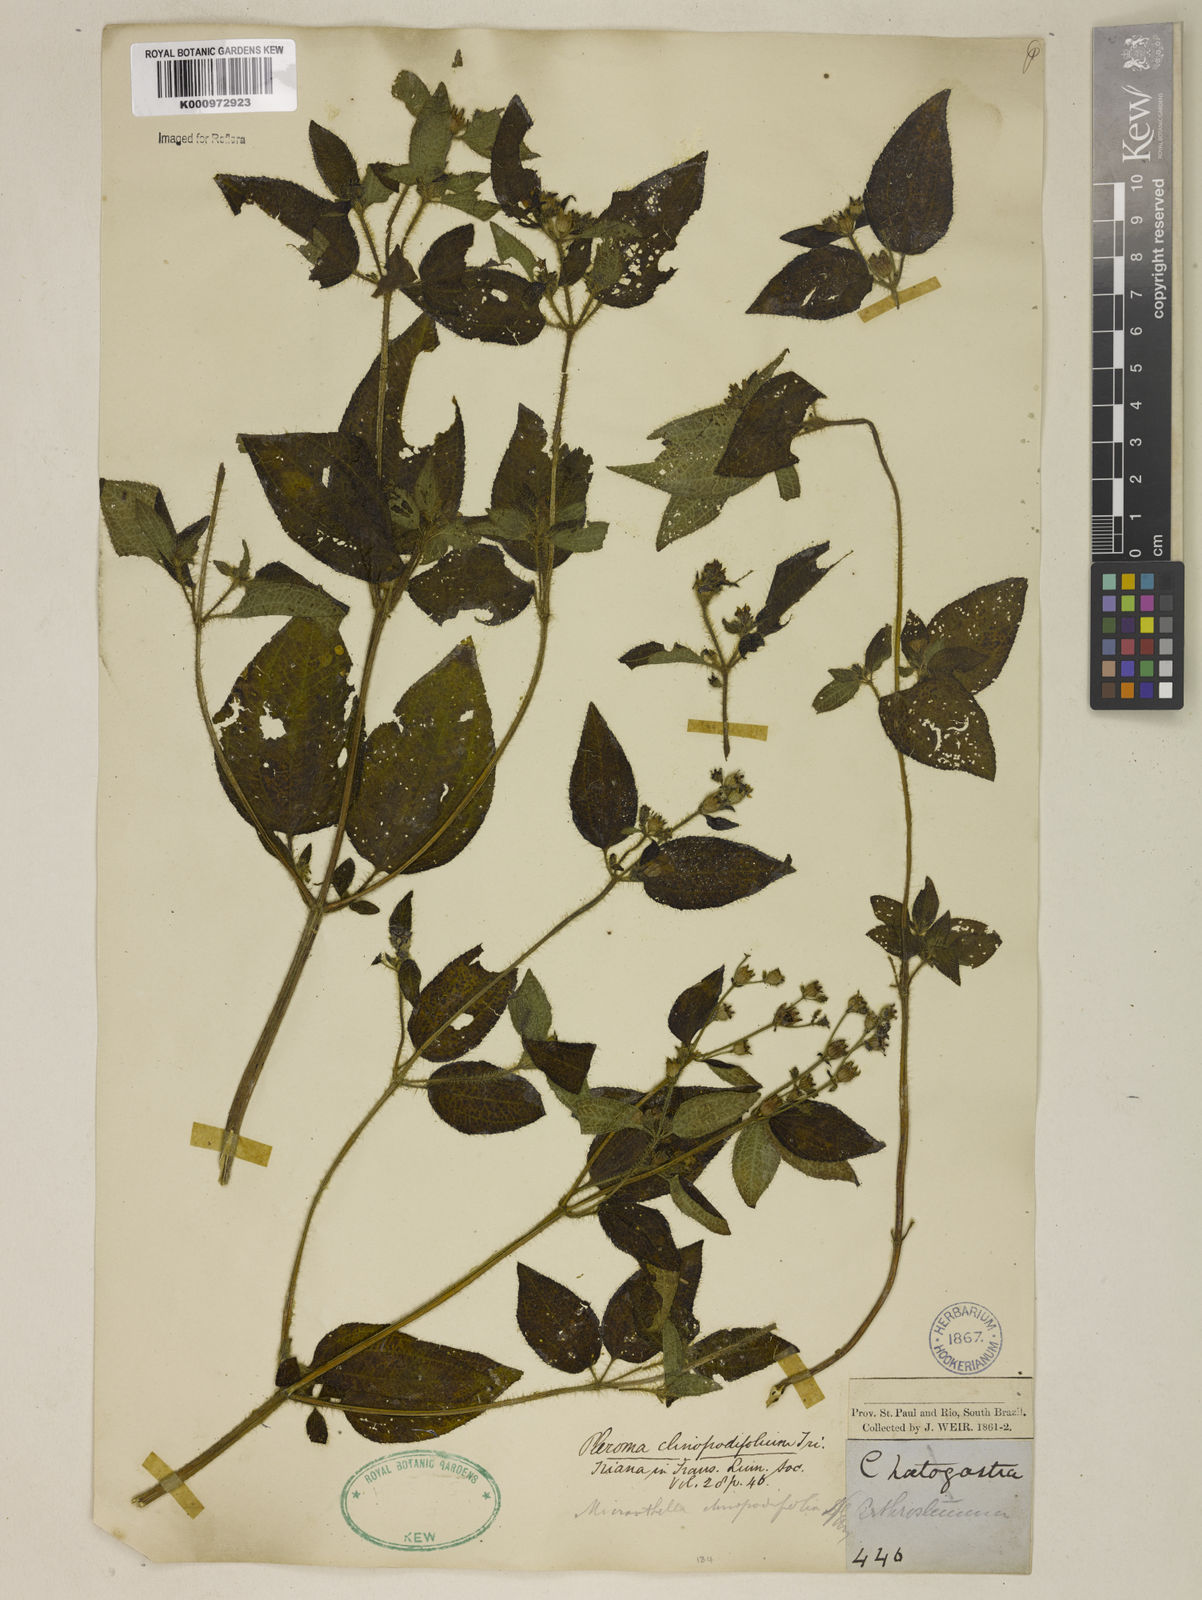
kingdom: Plantae
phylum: Tracheophyta
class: Magnoliopsida
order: Myrtales
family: Melastomataceae
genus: Chaetogastra
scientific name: Chaetogastra clinopodifolia
